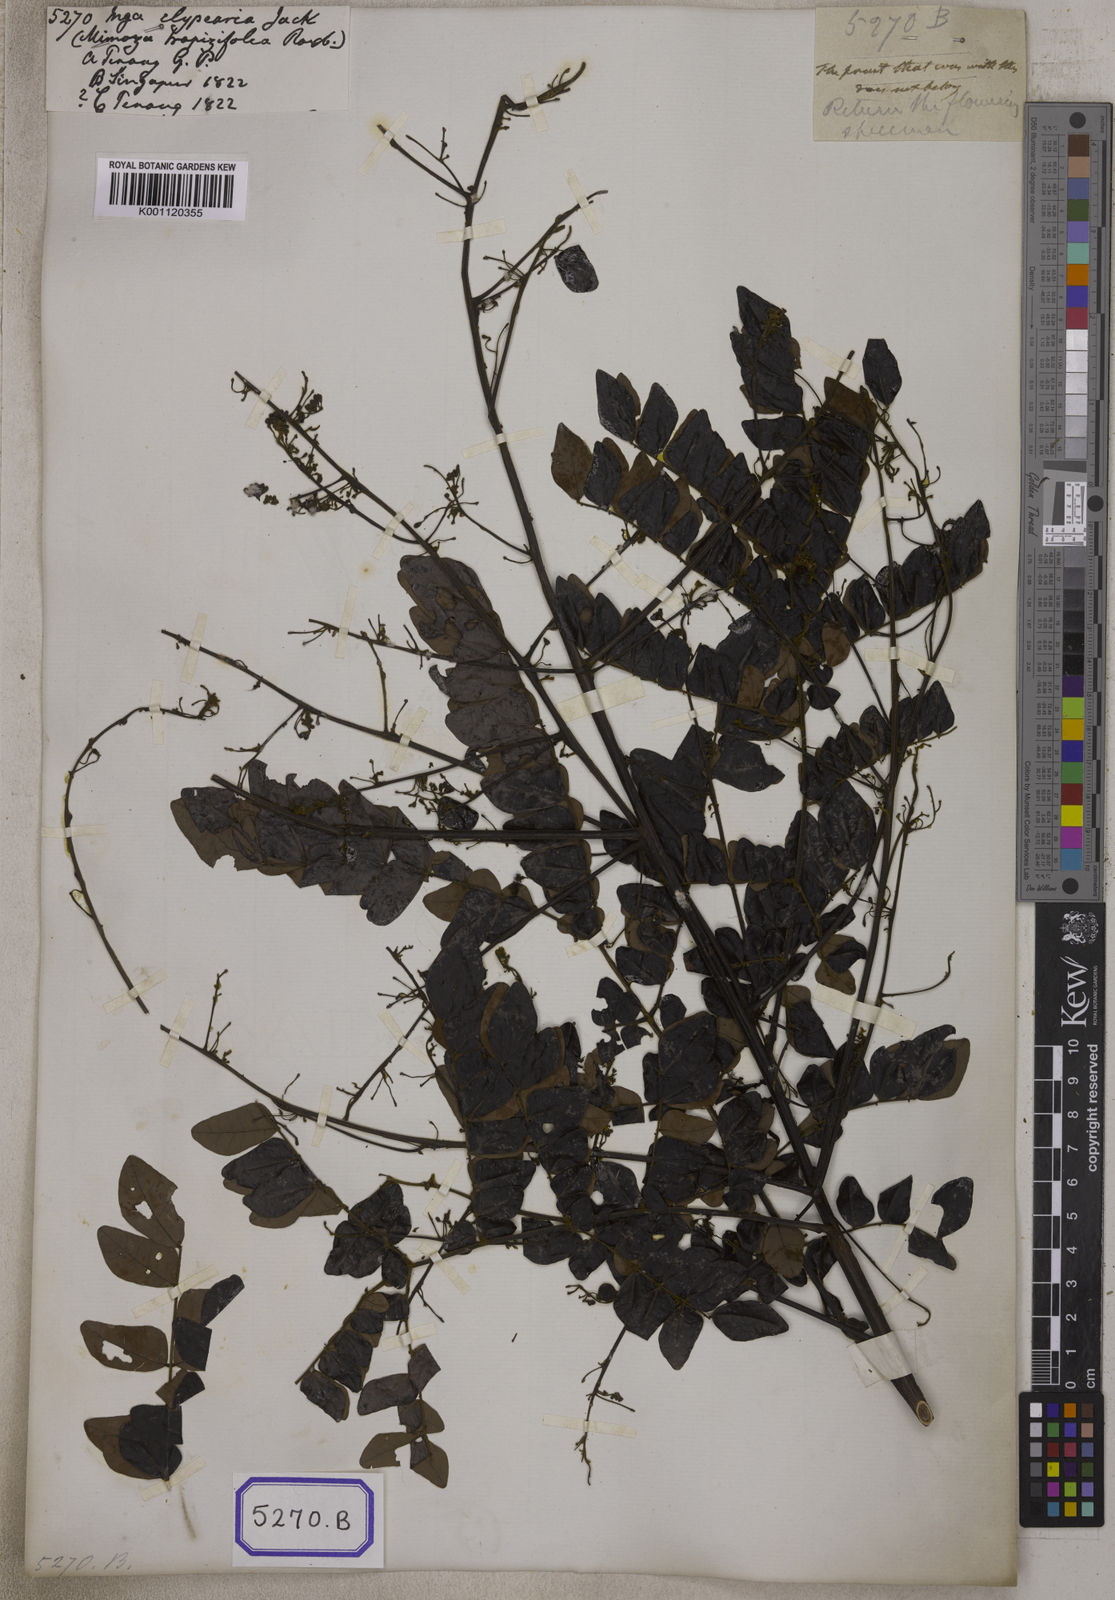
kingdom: Plantae
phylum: Tracheophyta
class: Magnoliopsida
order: Fabales
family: Fabaceae
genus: Archidendron
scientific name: Archidendron clypearia
